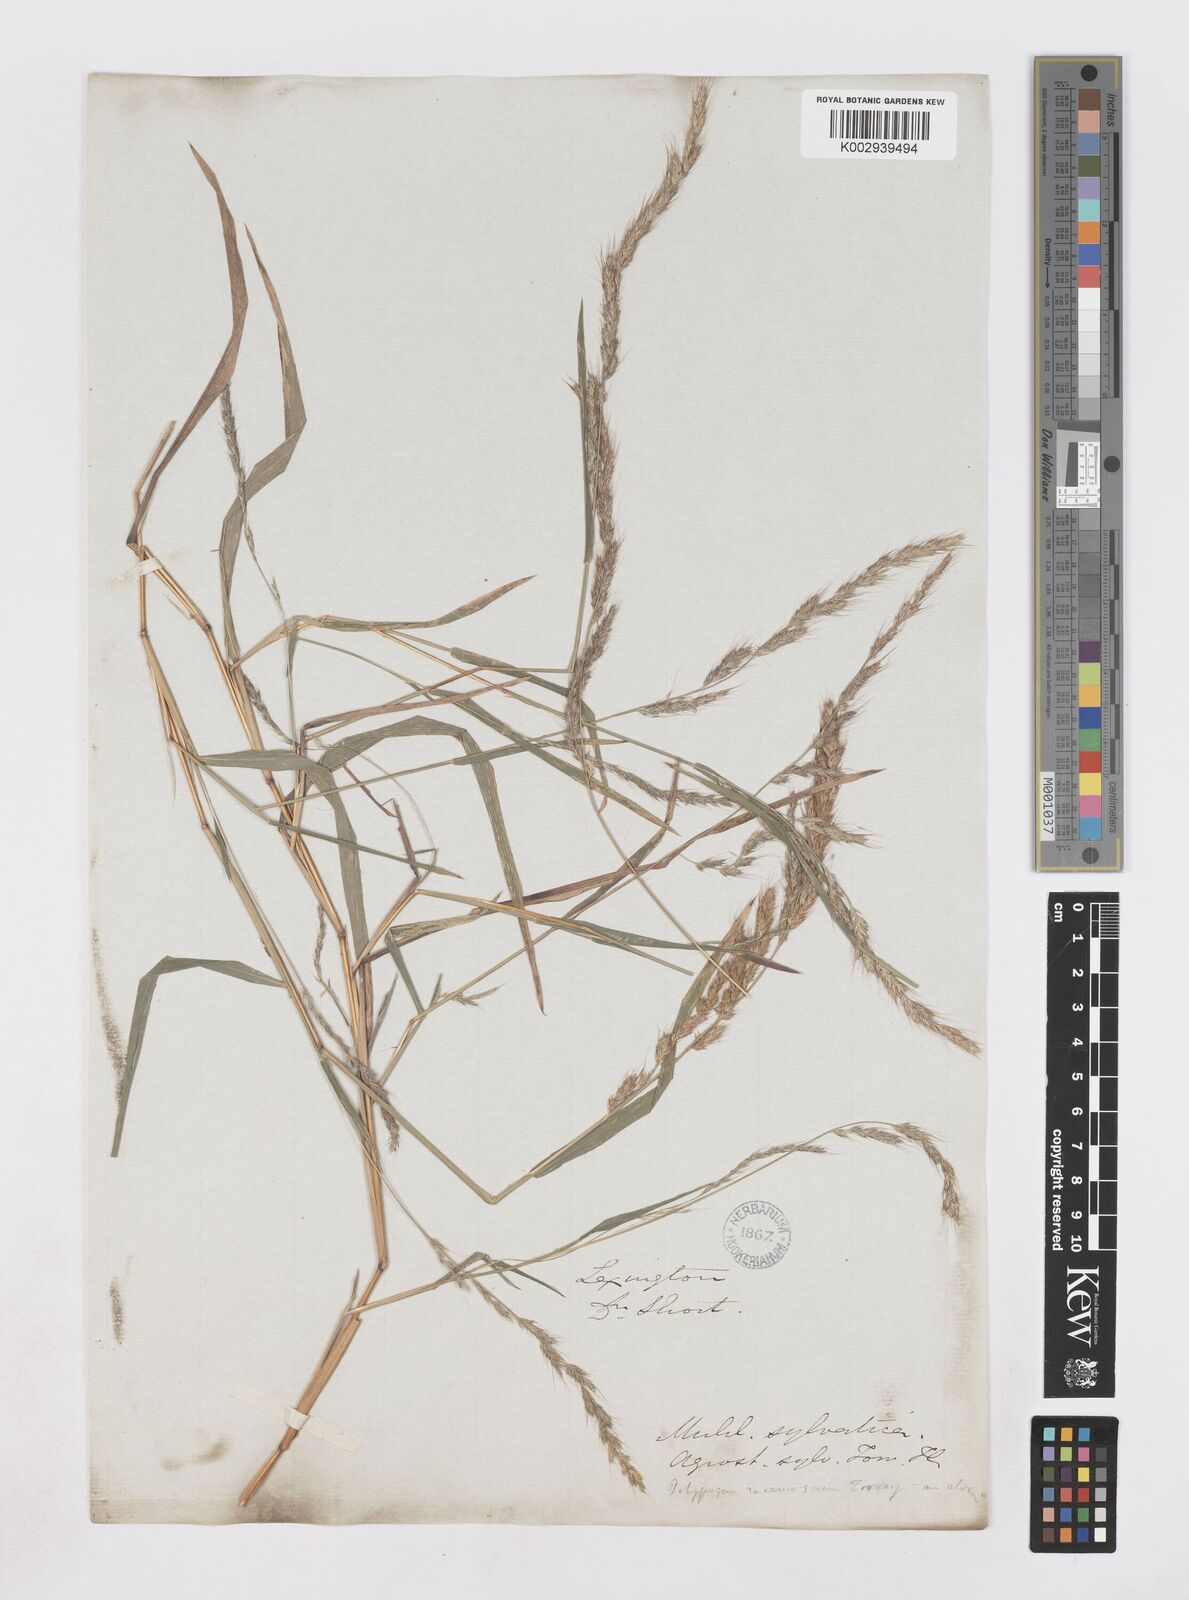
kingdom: Plantae
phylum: Tracheophyta
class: Liliopsida
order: Poales
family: Poaceae
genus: Muhlenbergia
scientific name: Muhlenbergia sylvatica
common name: Woodland muhly
